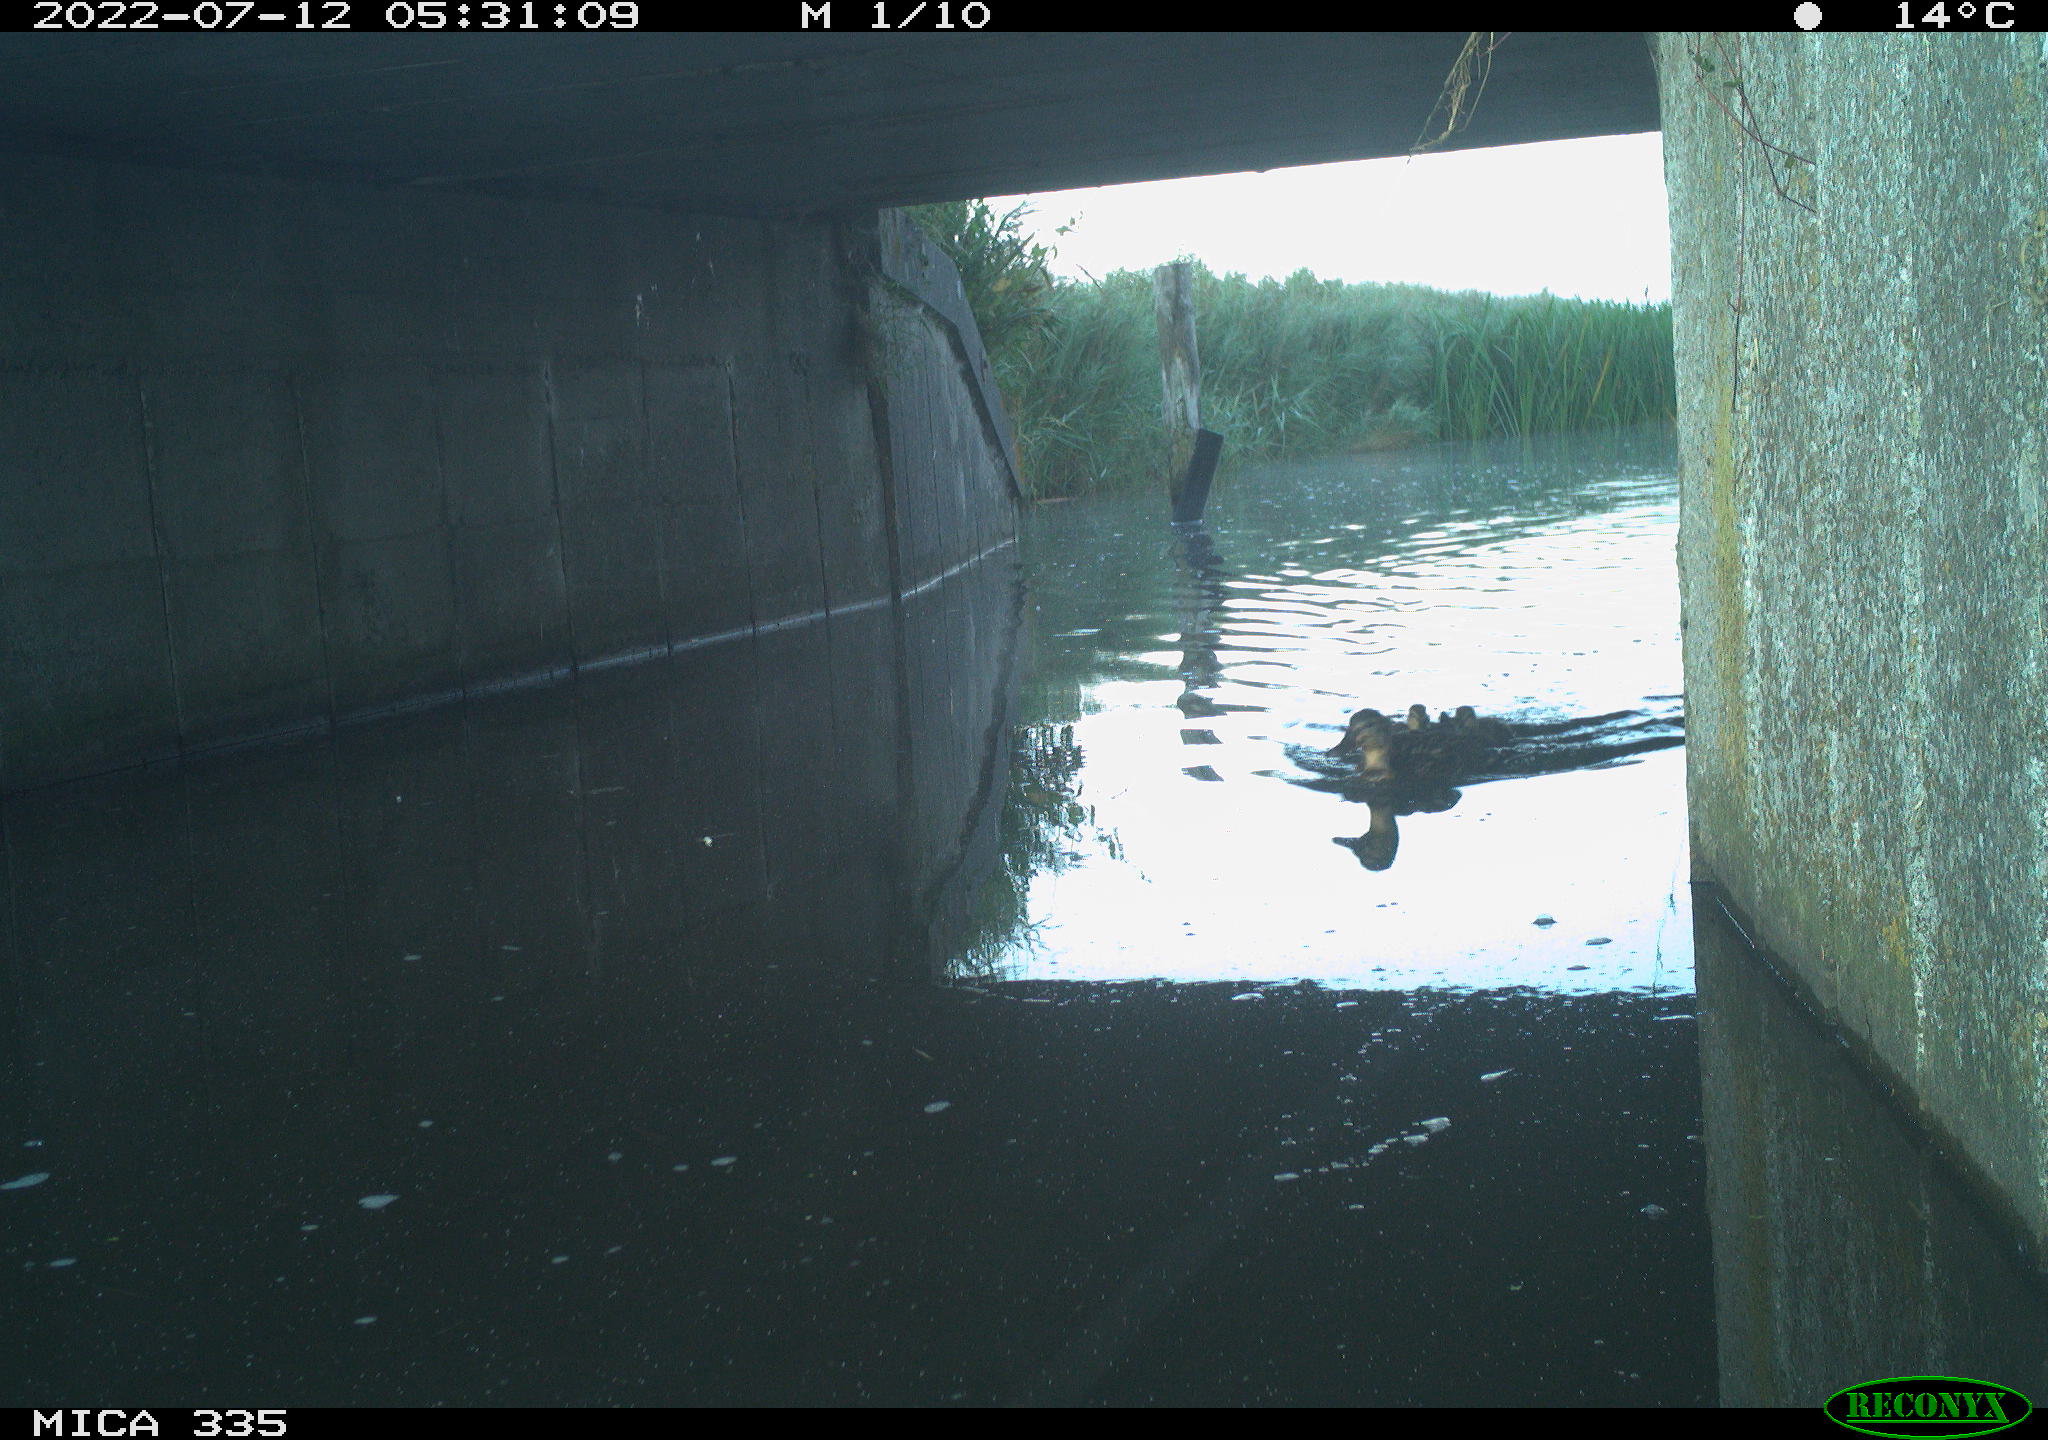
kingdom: Animalia
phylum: Chordata
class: Aves
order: Anseriformes
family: Anatidae
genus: Anas
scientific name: Anas platyrhynchos
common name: Mallard
